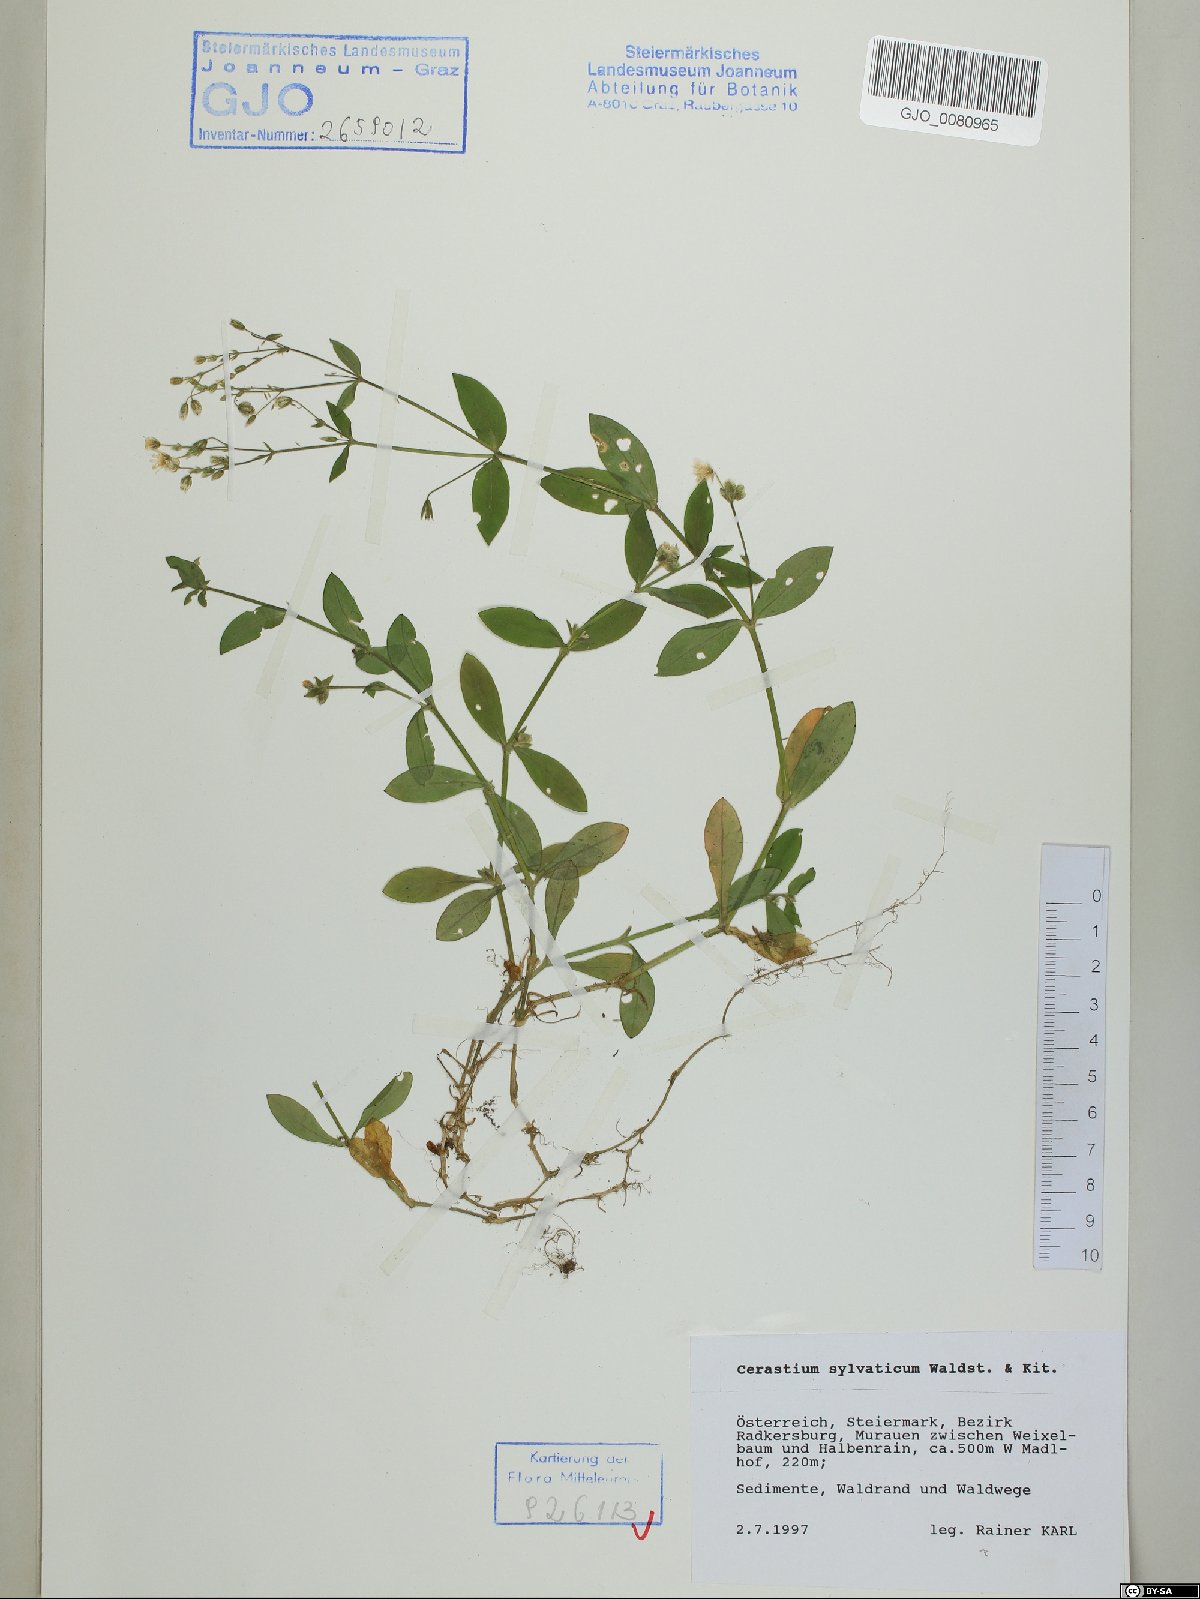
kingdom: Plantae
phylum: Tracheophyta
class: Magnoliopsida
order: Caryophyllales
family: Caryophyllaceae
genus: Cerastium
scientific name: Cerastium sylvaticum
